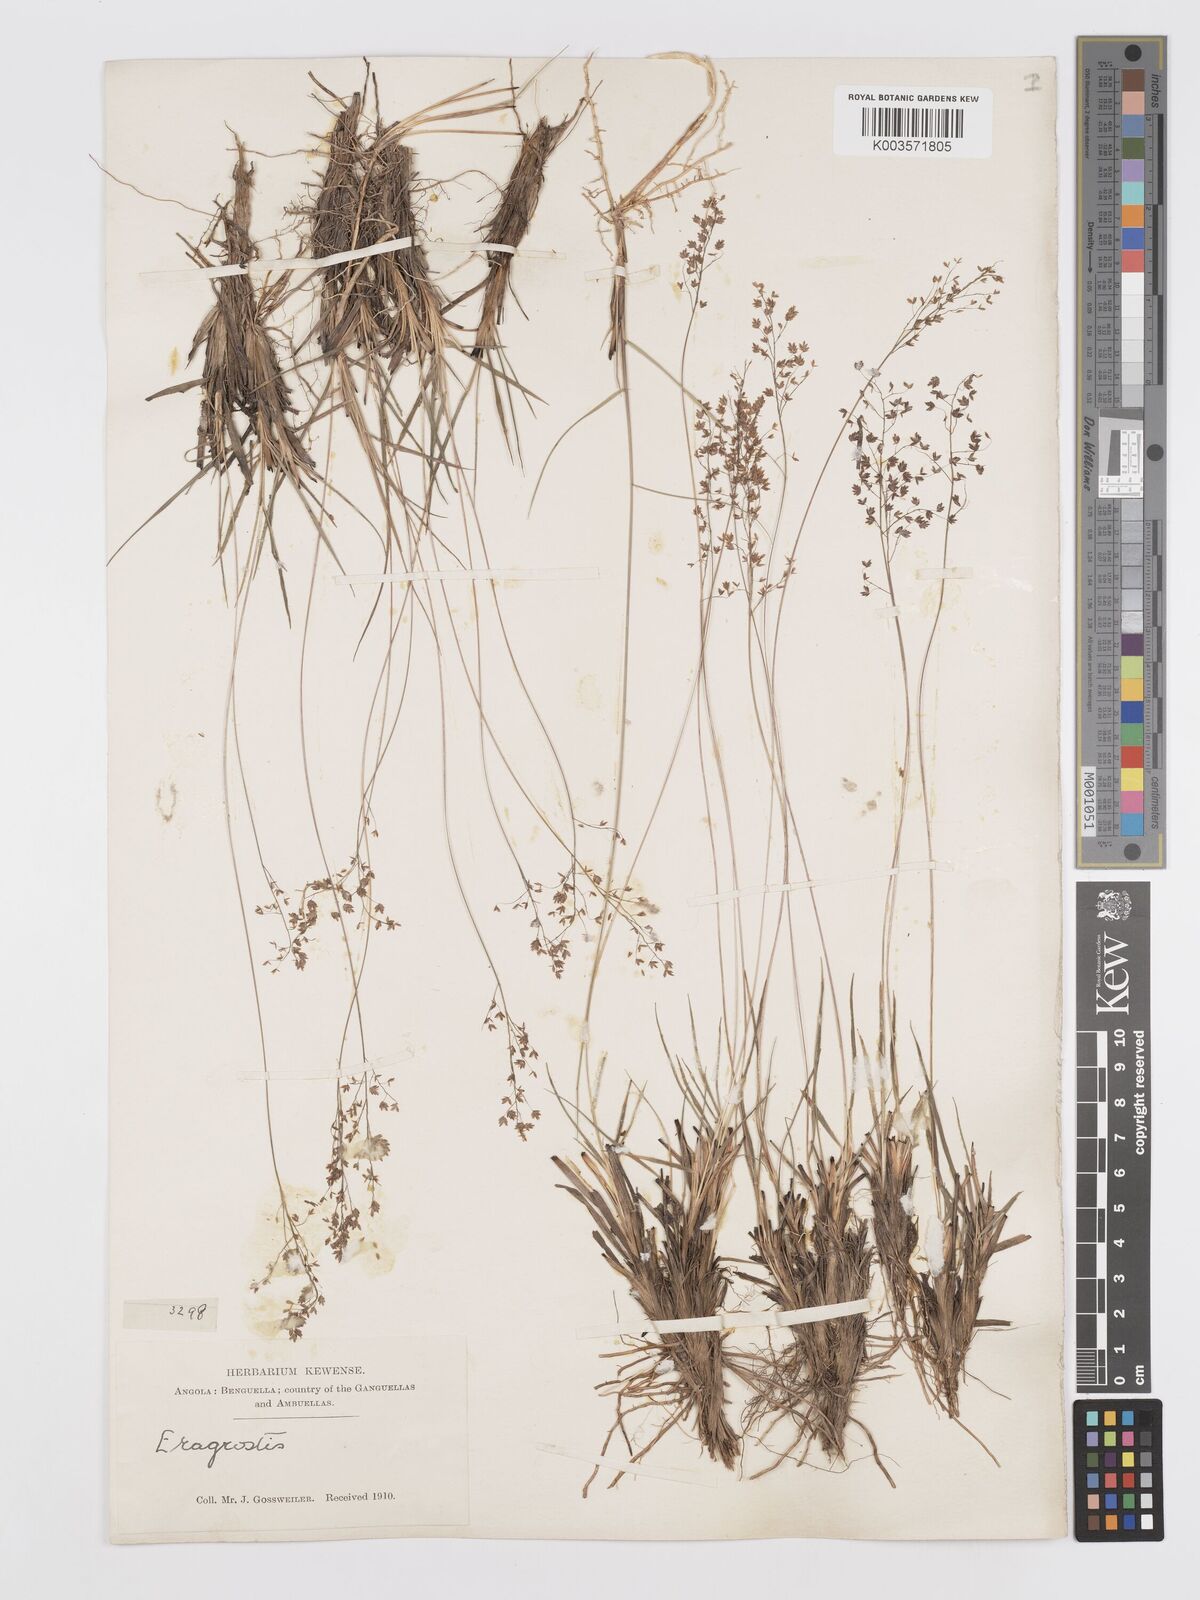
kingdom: Plantae
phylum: Tracheophyta
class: Liliopsida
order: Poales
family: Poaceae
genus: Eragrostis
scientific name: Eragrostis caniflora
